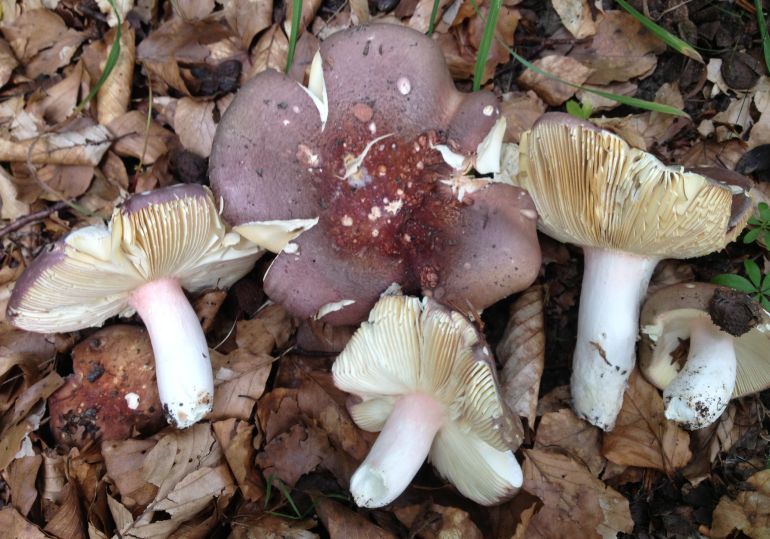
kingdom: Fungi
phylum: Basidiomycota
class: Agaricomycetes
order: Russulales
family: Russulaceae
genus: Russula
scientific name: Russula olivacea
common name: stor skørhat
